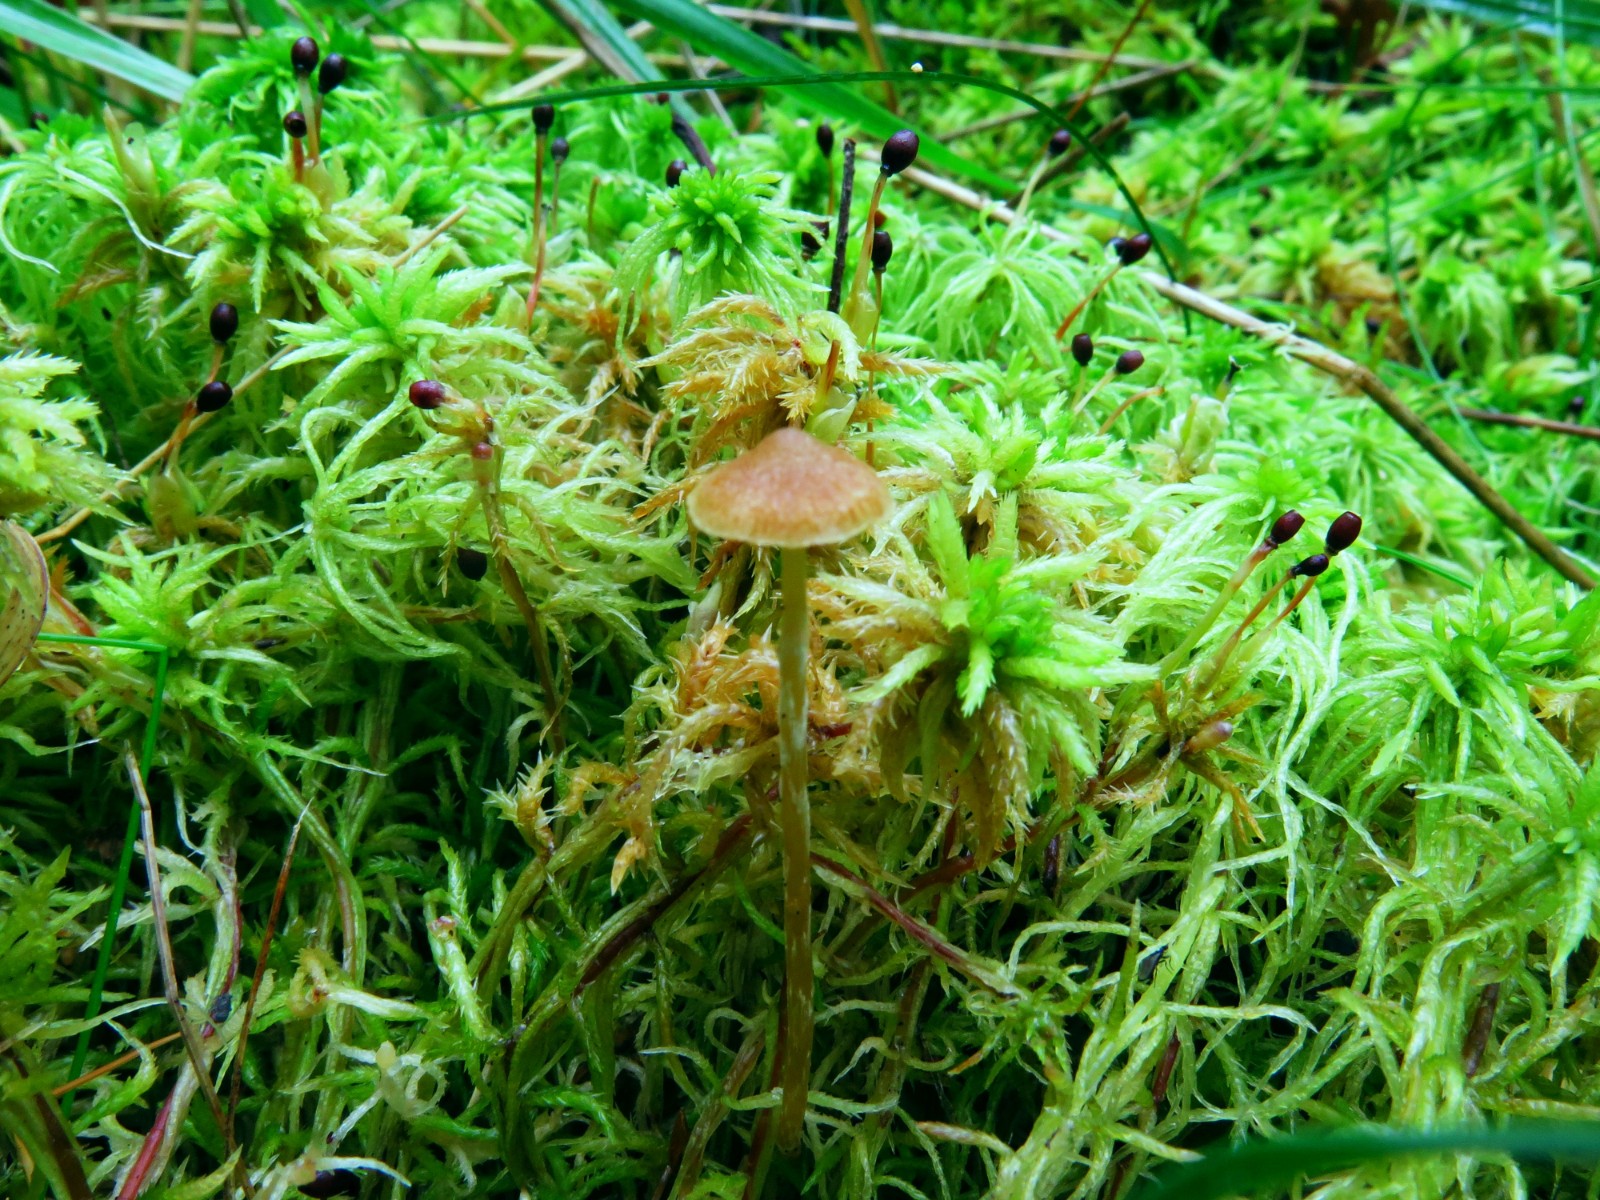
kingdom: Fungi
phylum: Basidiomycota
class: Agaricomycetes
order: Agaricales
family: Hymenogastraceae
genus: Galerina
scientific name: Galerina paludosa
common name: mose-hjelmhat
